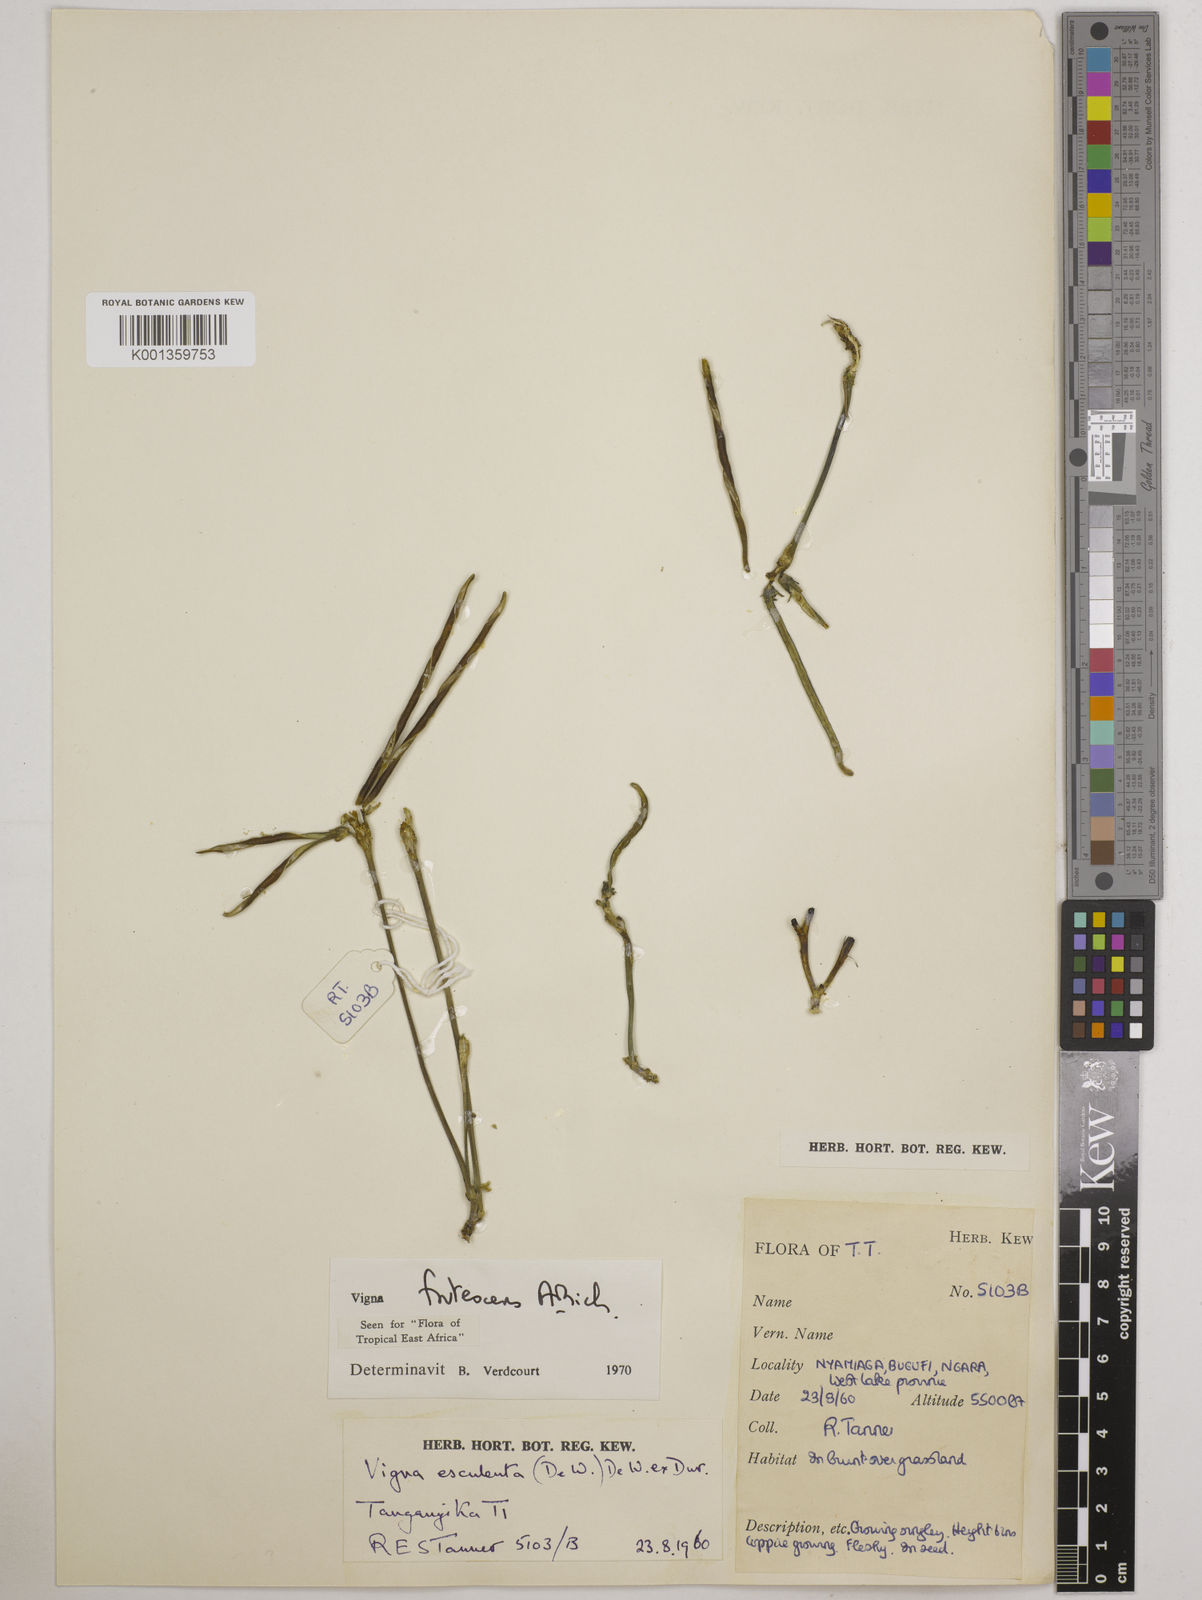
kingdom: Plantae
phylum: Tracheophyta
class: Magnoliopsida
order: Fabales
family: Fabaceae
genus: Vigna
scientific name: Vigna frutescens
